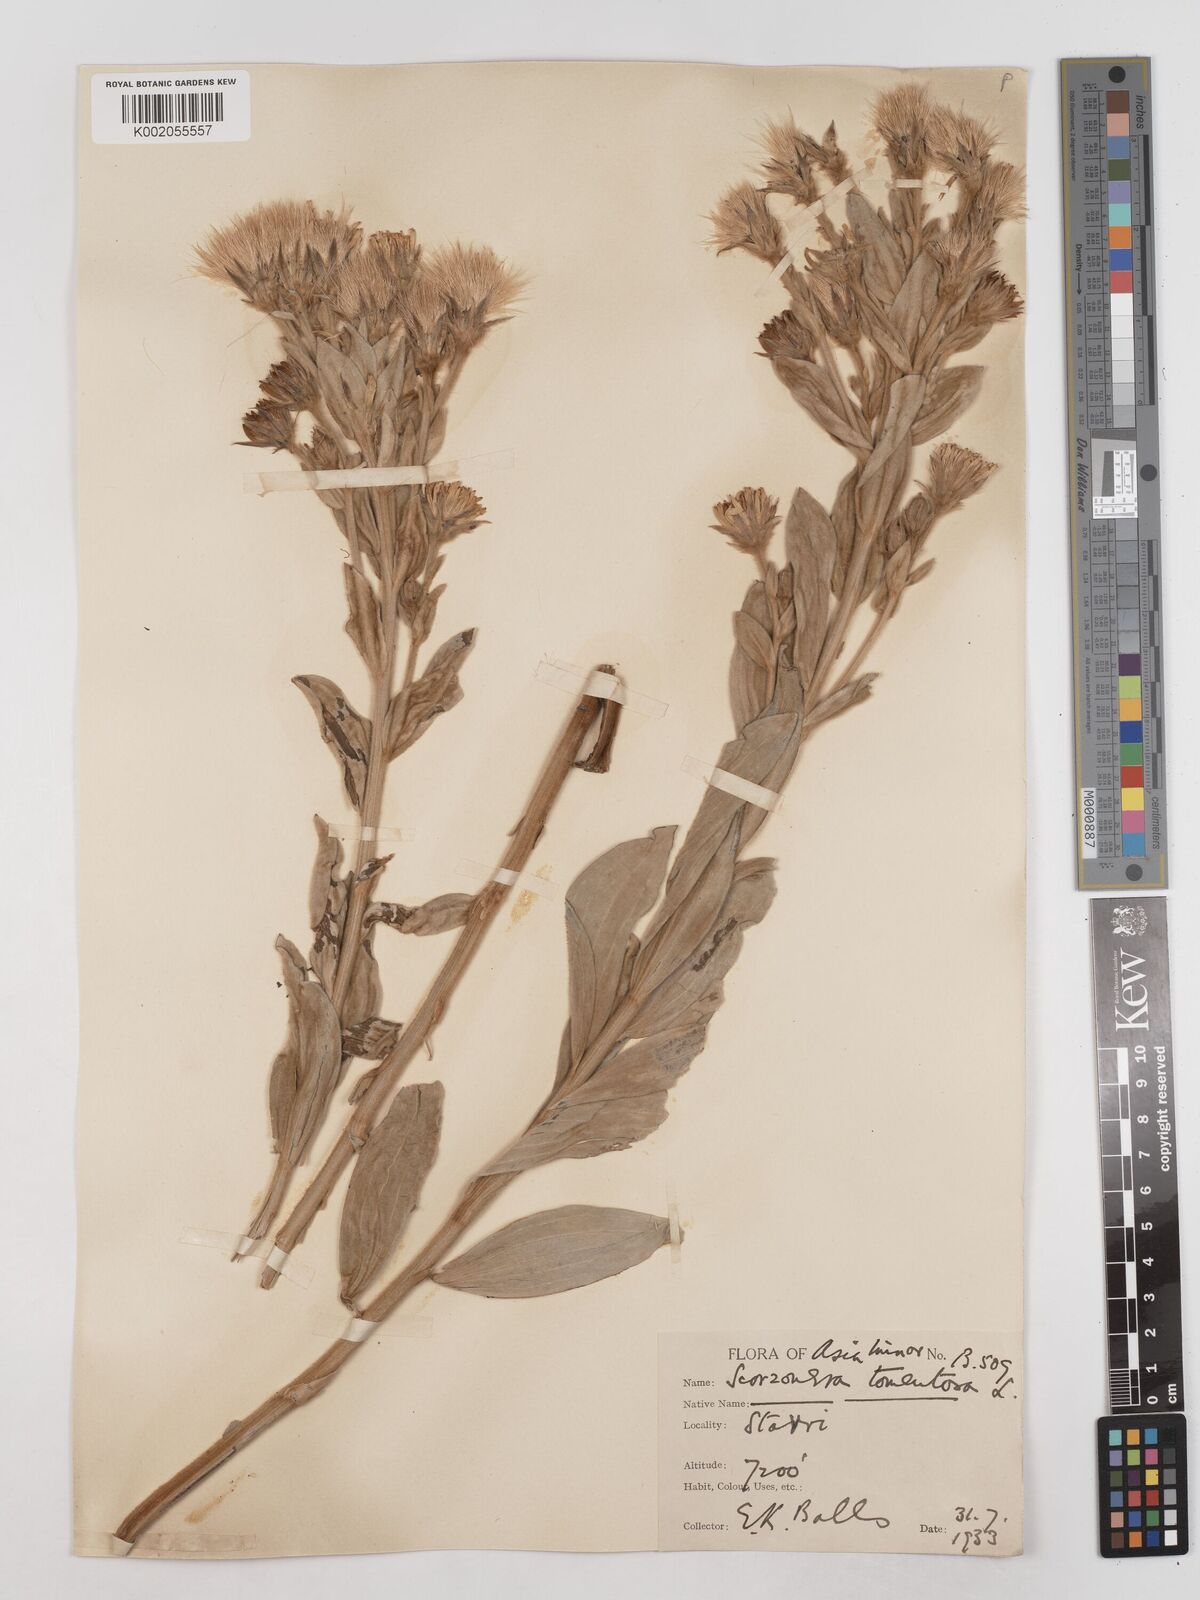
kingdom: Plantae
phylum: Tracheophyta
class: Magnoliopsida
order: Asterales
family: Asteraceae
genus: Candollea
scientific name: Candollea mollis
